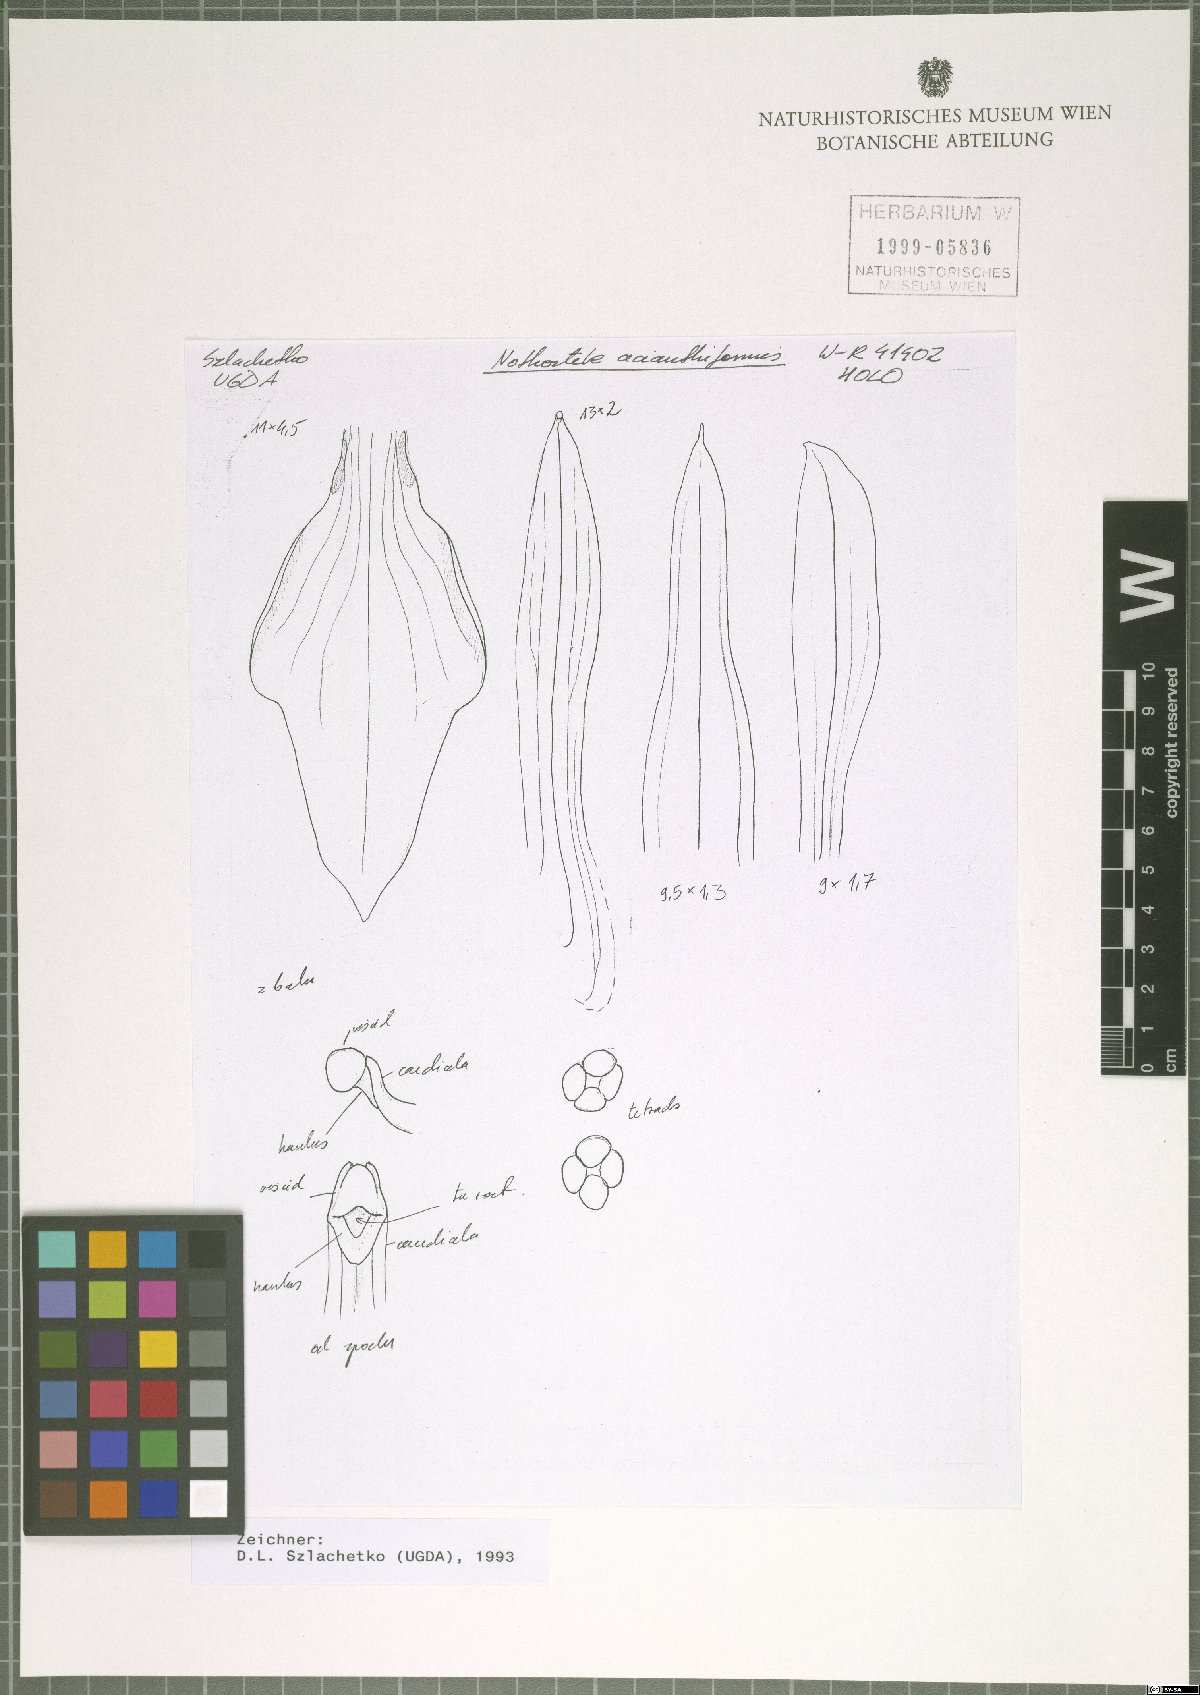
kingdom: Plantae
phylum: Tracheophyta
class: Liliopsida
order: Asparagales
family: Orchidaceae
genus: Nothostele
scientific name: Nothostele acianthiformis
